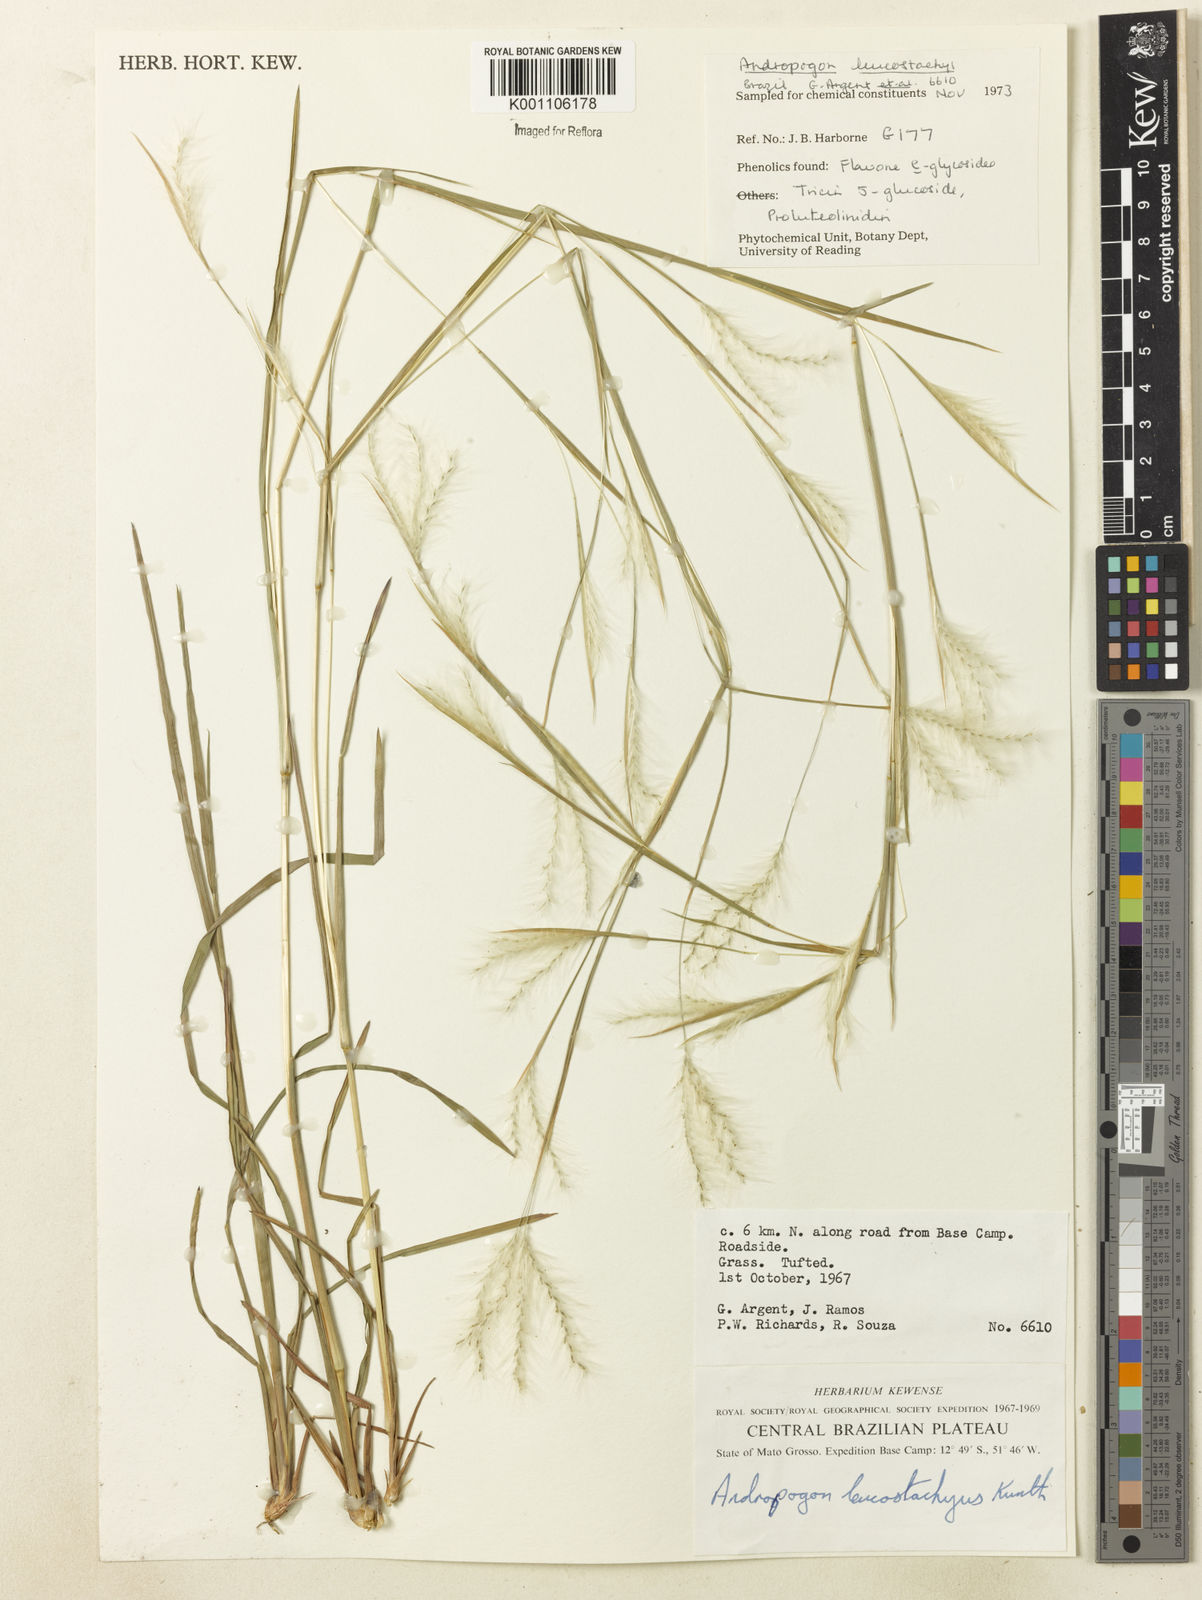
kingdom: Plantae
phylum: Tracheophyta
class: Liliopsida
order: Poales
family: Poaceae
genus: Andropogon
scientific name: Andropogon leucostachyus
